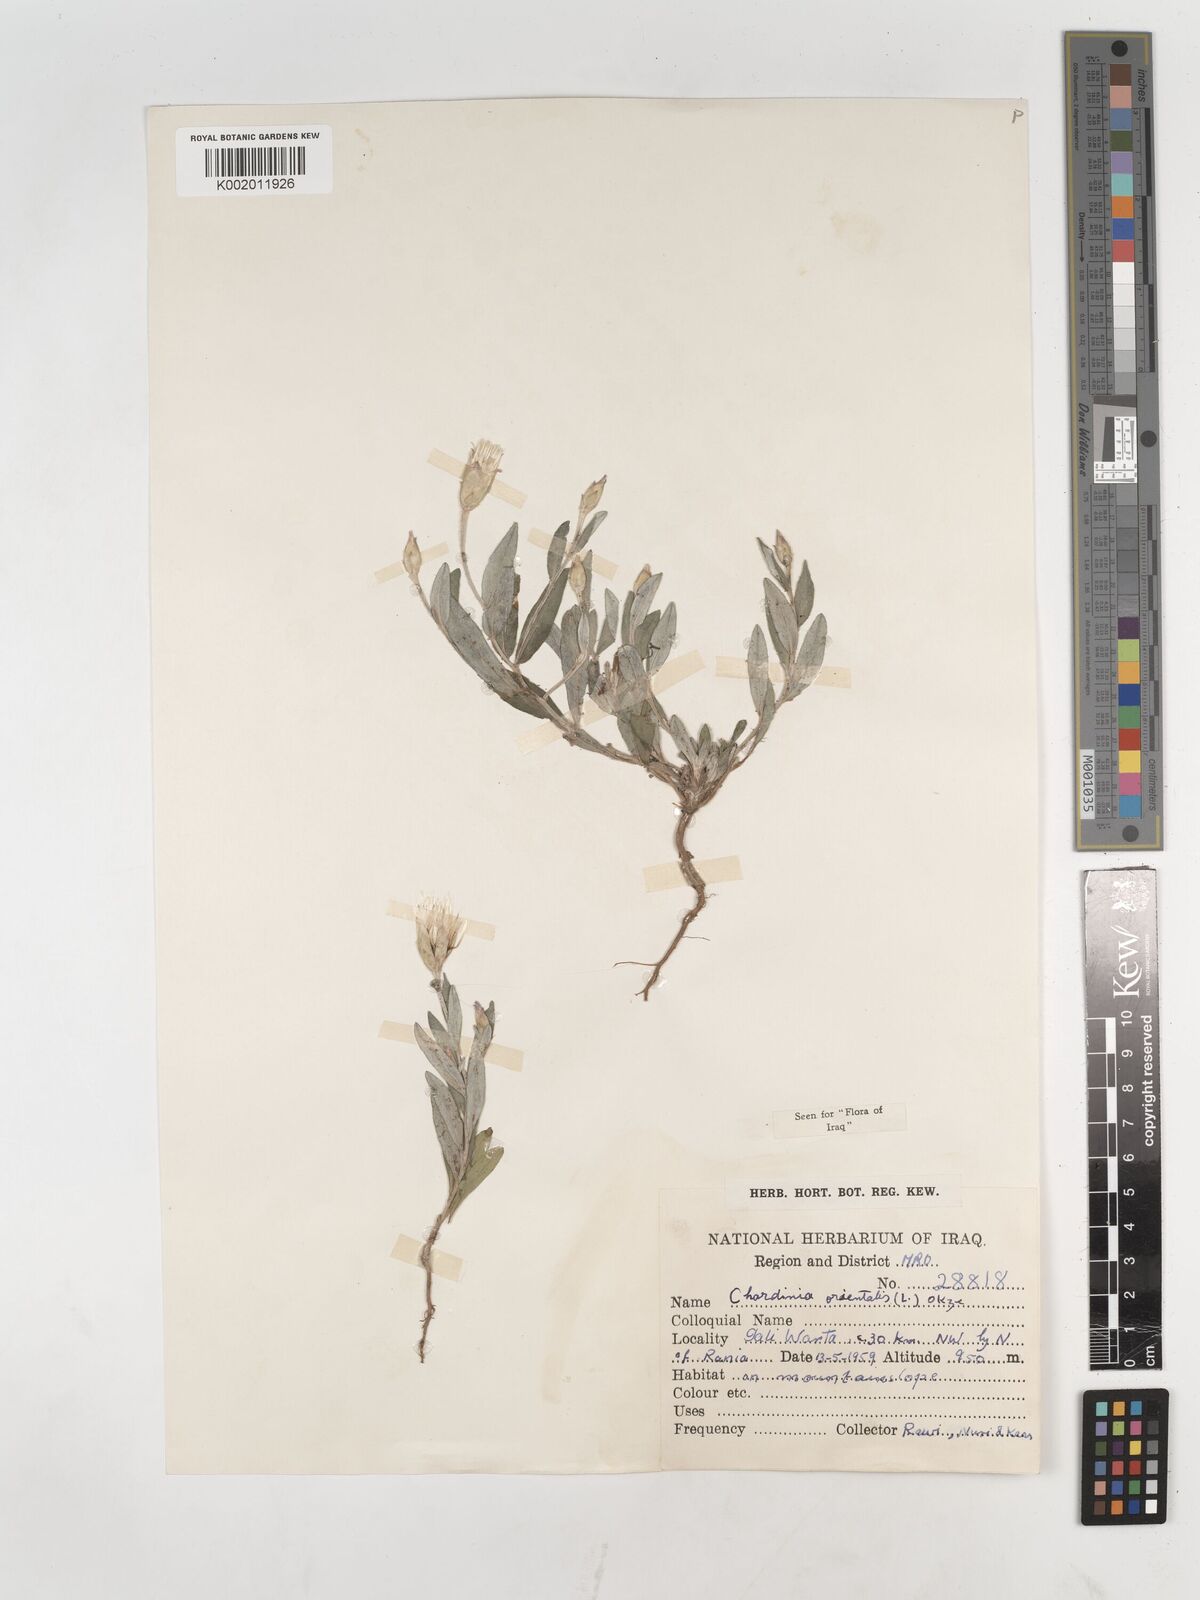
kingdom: Plantae
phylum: Tracheophyta
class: Magnoliopsida
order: Asterales
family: Asteraceae
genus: Chardinia
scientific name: Chardinia orientalis
